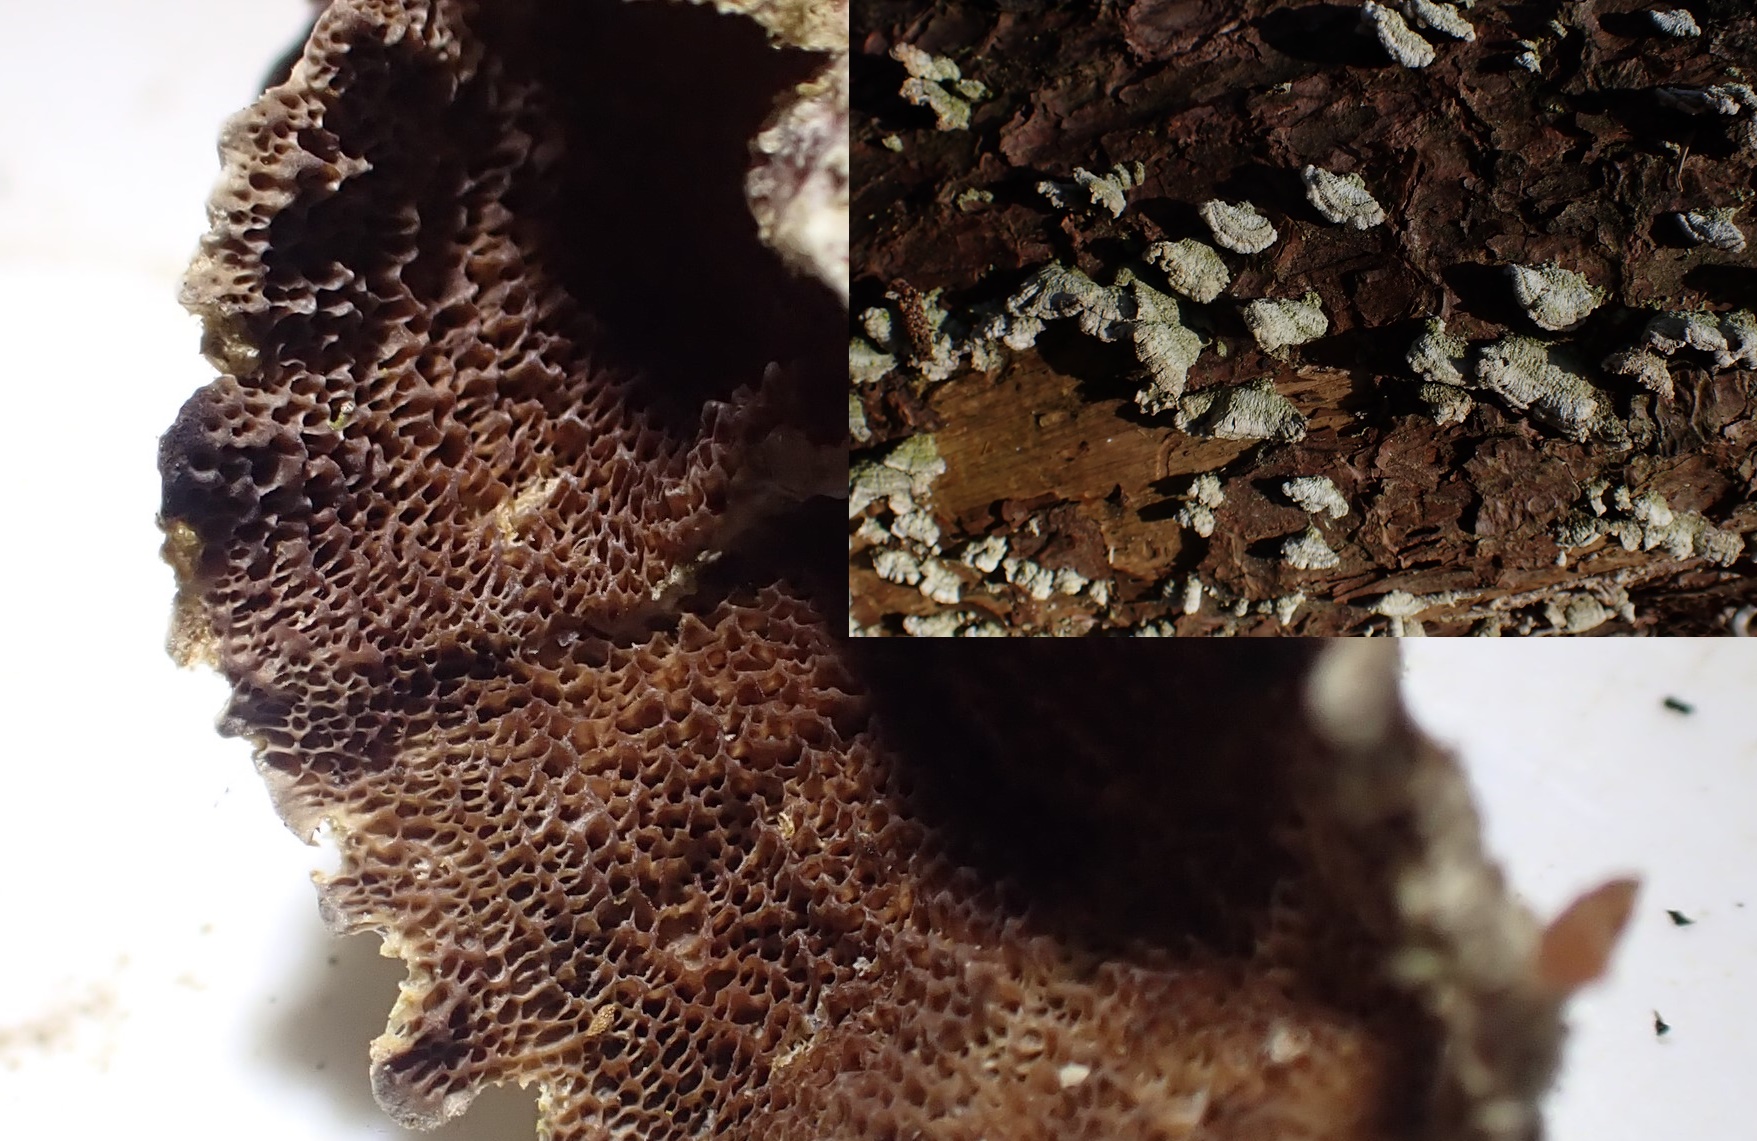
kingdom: Fungi
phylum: Basidiomycota
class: Agaricomycetes
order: Hymenochaetales
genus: Trichaptum
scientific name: Trichaptum fuscoviolaceum
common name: tandet violporesvamp
